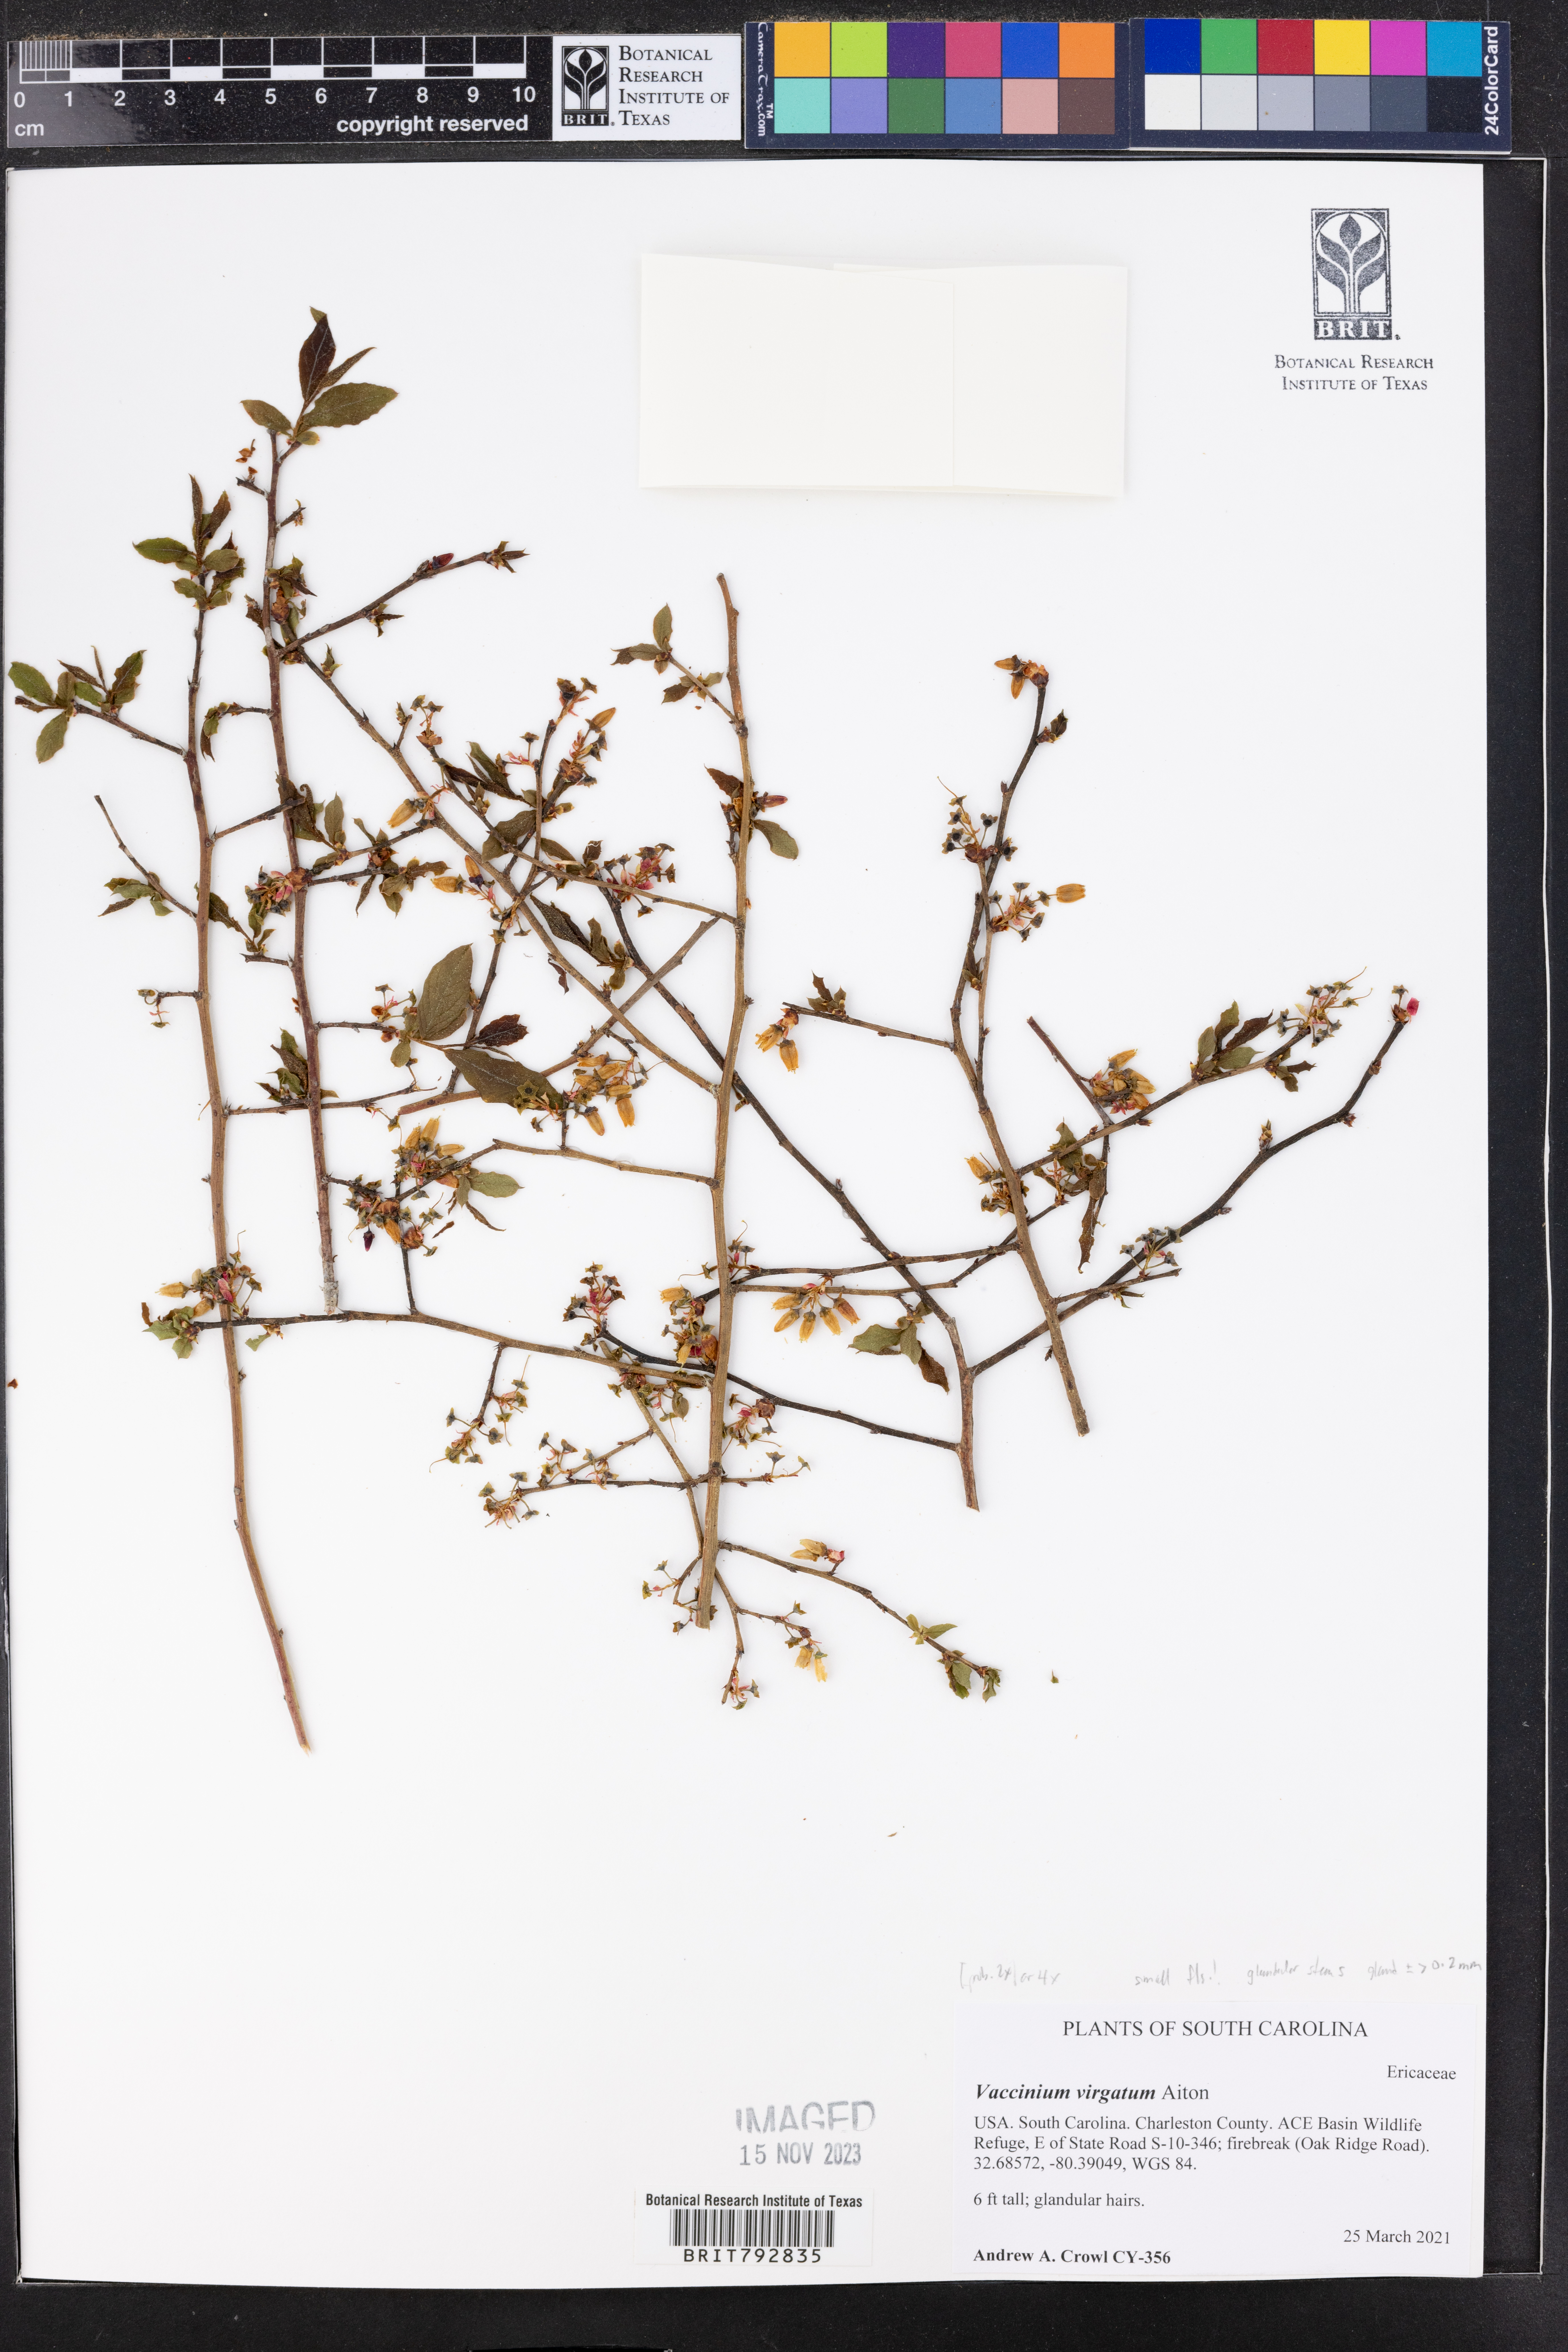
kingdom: Plantae
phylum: Tracheophyta
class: Magnoliopsida
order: Ericales
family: Ericaceae
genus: Vaccinium
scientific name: Vaccinium corymbosum
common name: Blueberry
